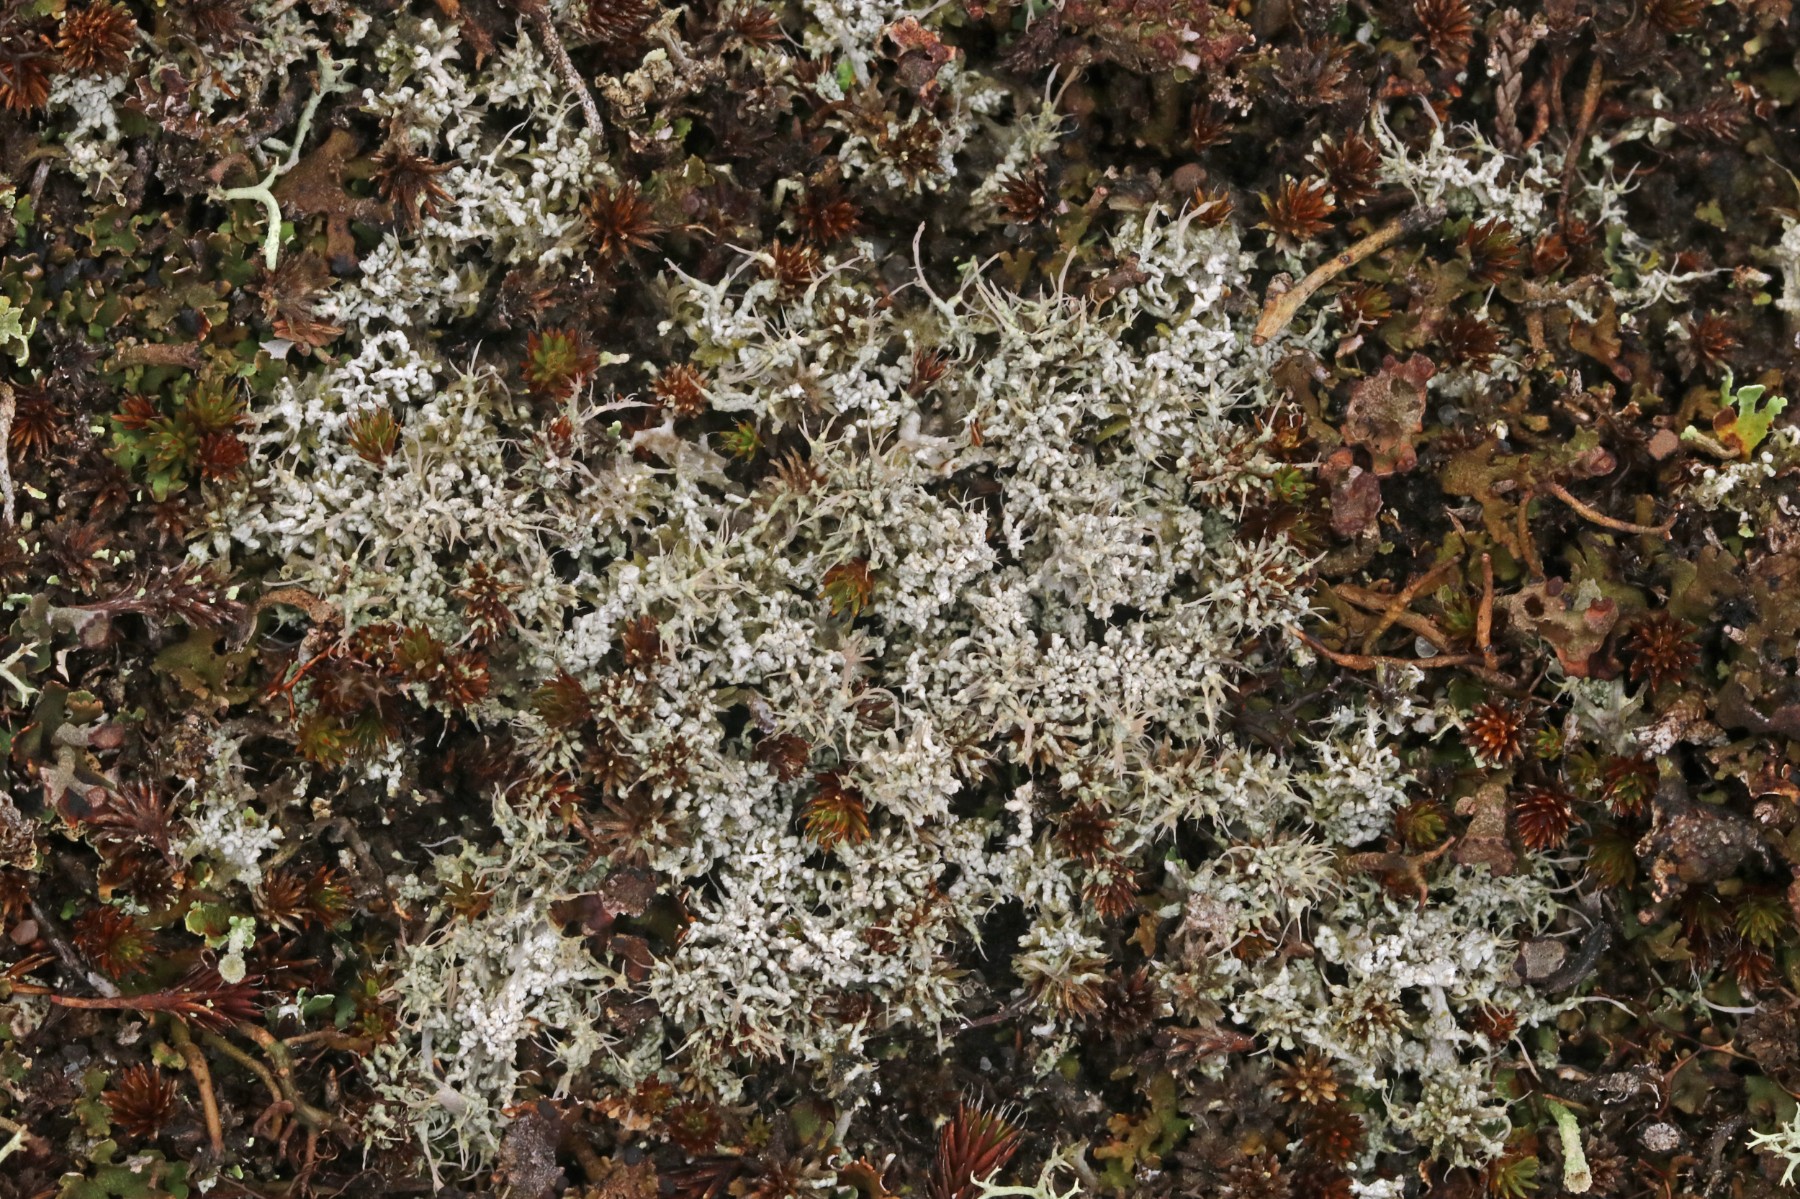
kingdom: Fungi
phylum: Ascomycota
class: Lecanoromycetes
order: Pertusariales
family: Ochrolechiaceae
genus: Ochrolechia
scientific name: Ochrolechia frigida
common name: fjeld-blegskivelav
